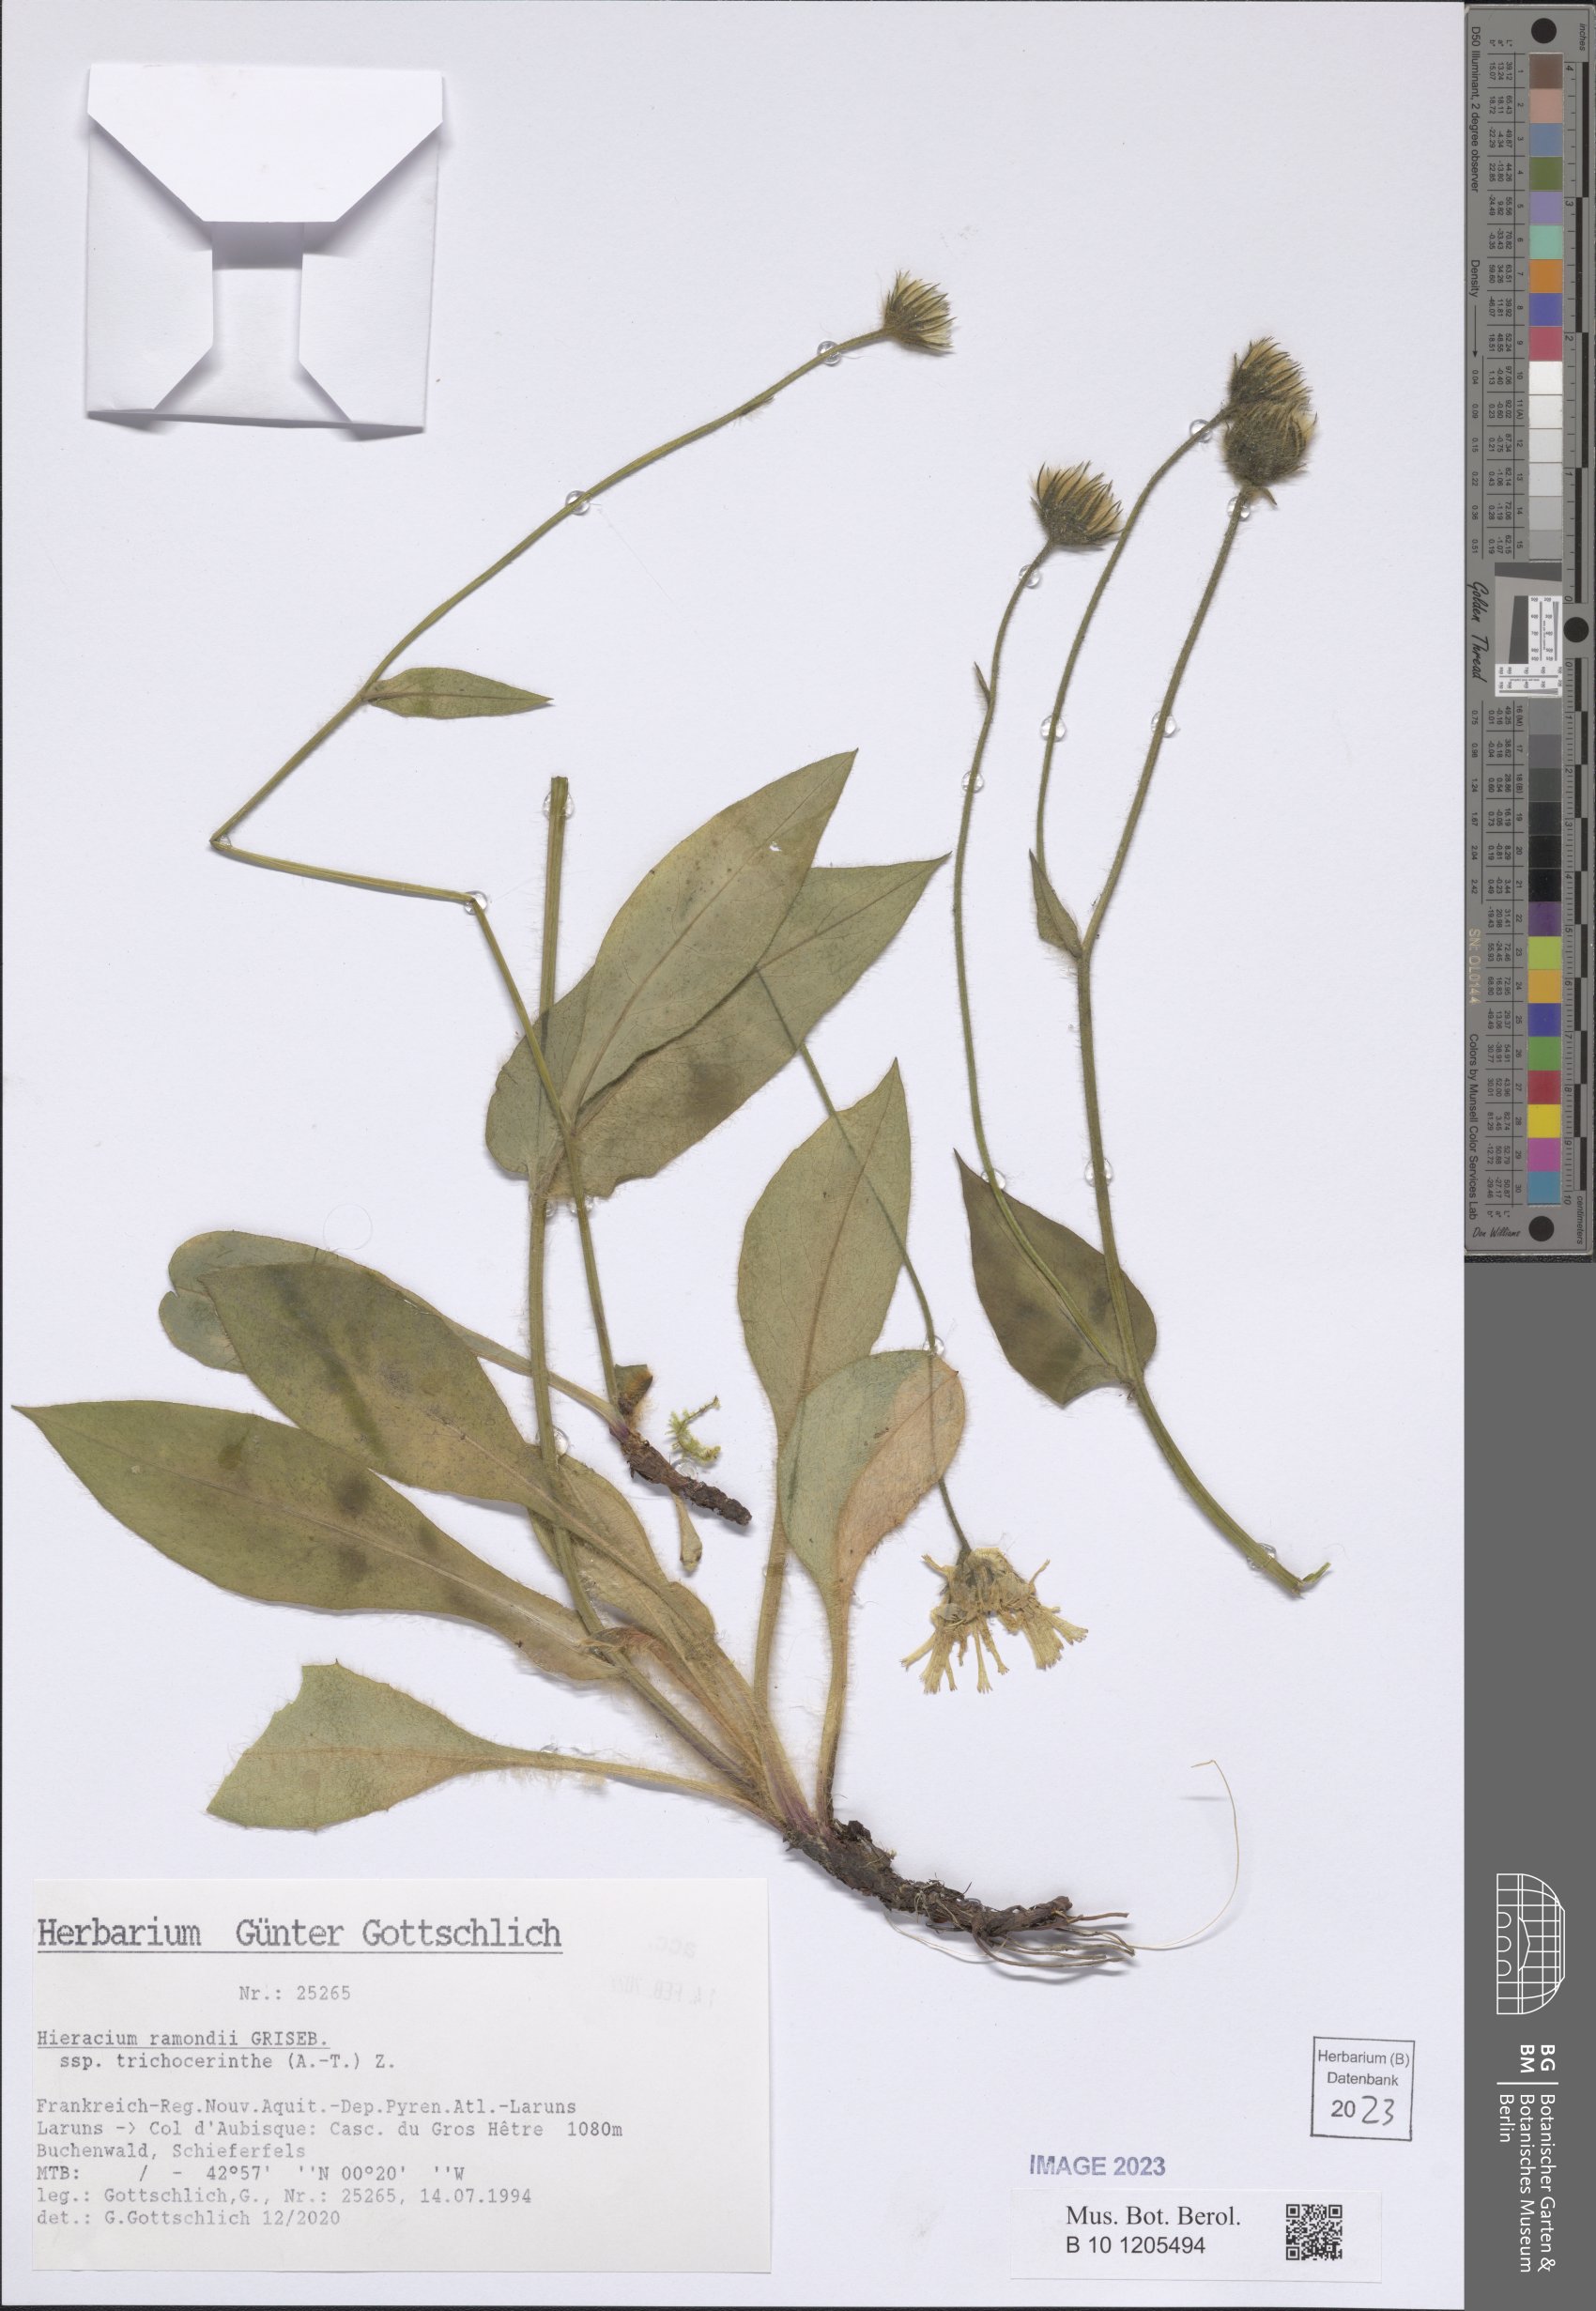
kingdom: Plantae
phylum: Tracheophyta
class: Magnoliopsida
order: Asterales
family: Asteraceae
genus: Hieracium
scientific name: Hieracium cryptanthum
